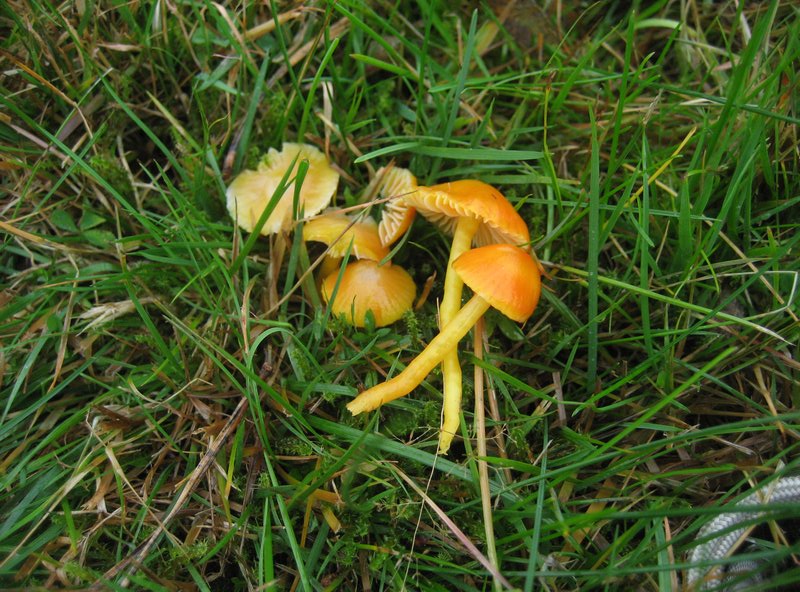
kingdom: Fungi
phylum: Basidiomycota
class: Agaricomycetes
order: Agaricales
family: Hygrophoraceae
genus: Hygrocybe
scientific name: Hygrocybe ceracea
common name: voksgul vokshat
